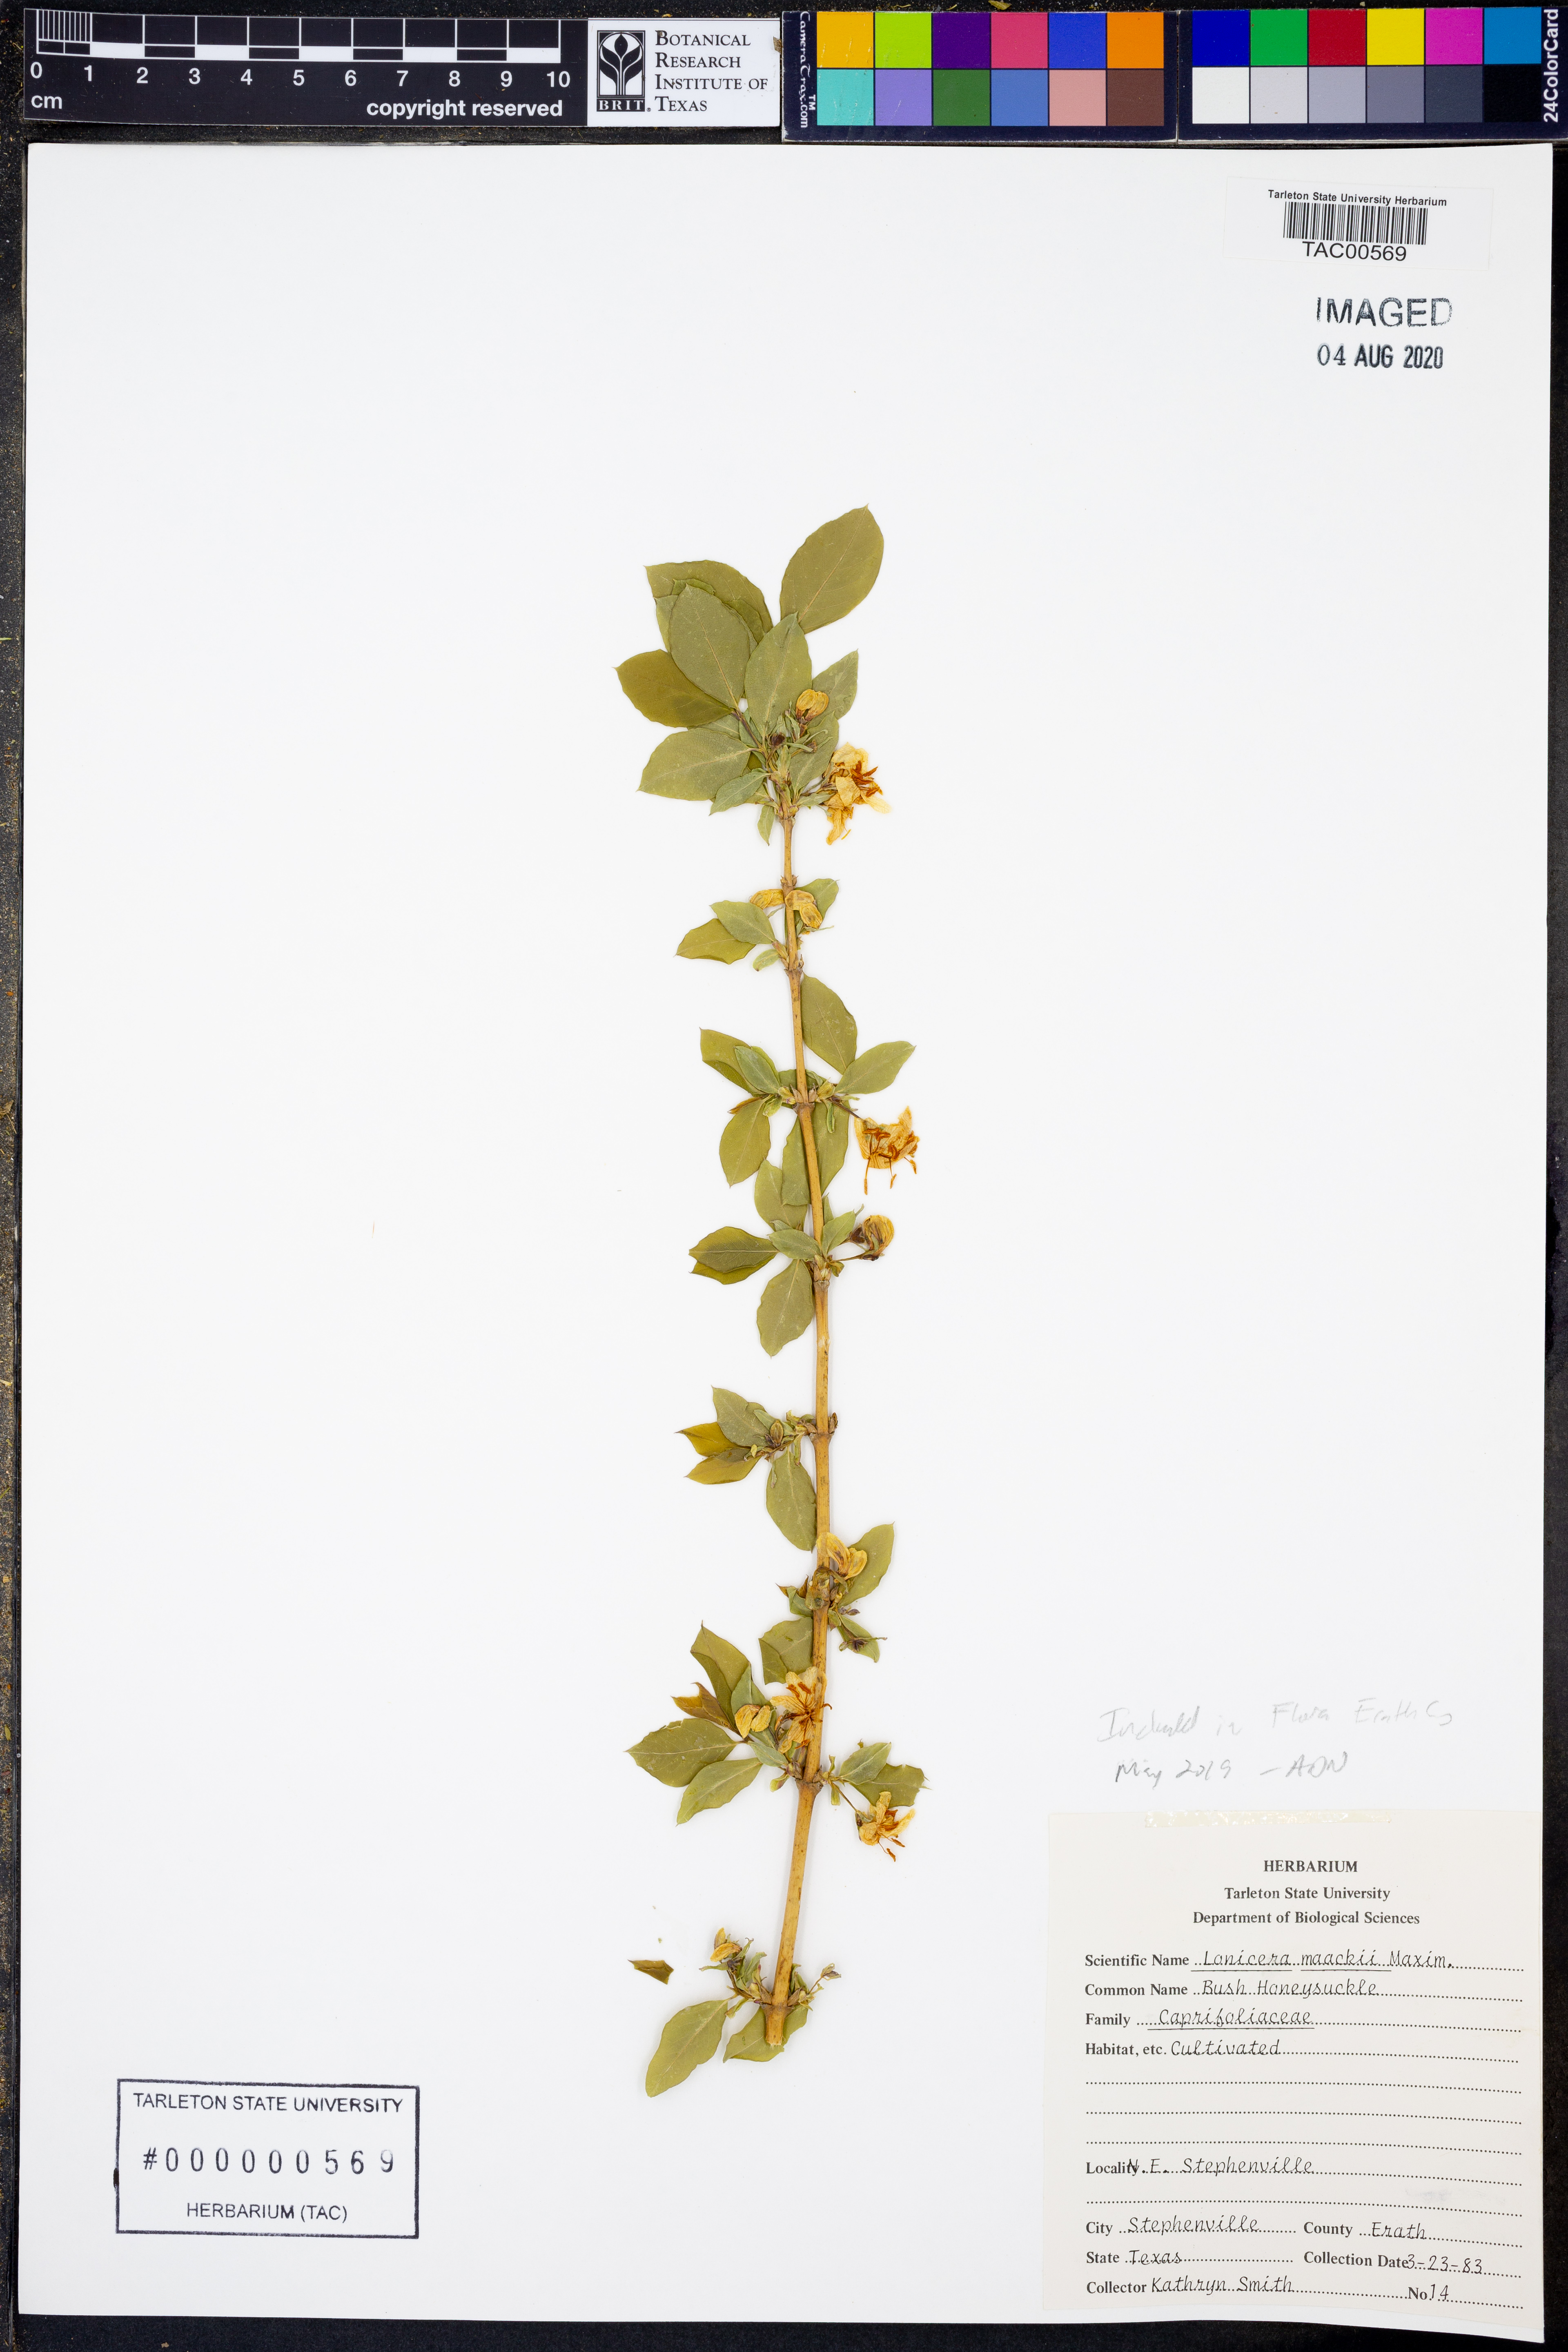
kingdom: Plantae
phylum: Tracheophyta
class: Magnoliopsida
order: Dipsacales
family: Caprifoliaceae
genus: Lonicera
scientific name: Lonicera maackii
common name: Amur honeysuckle
